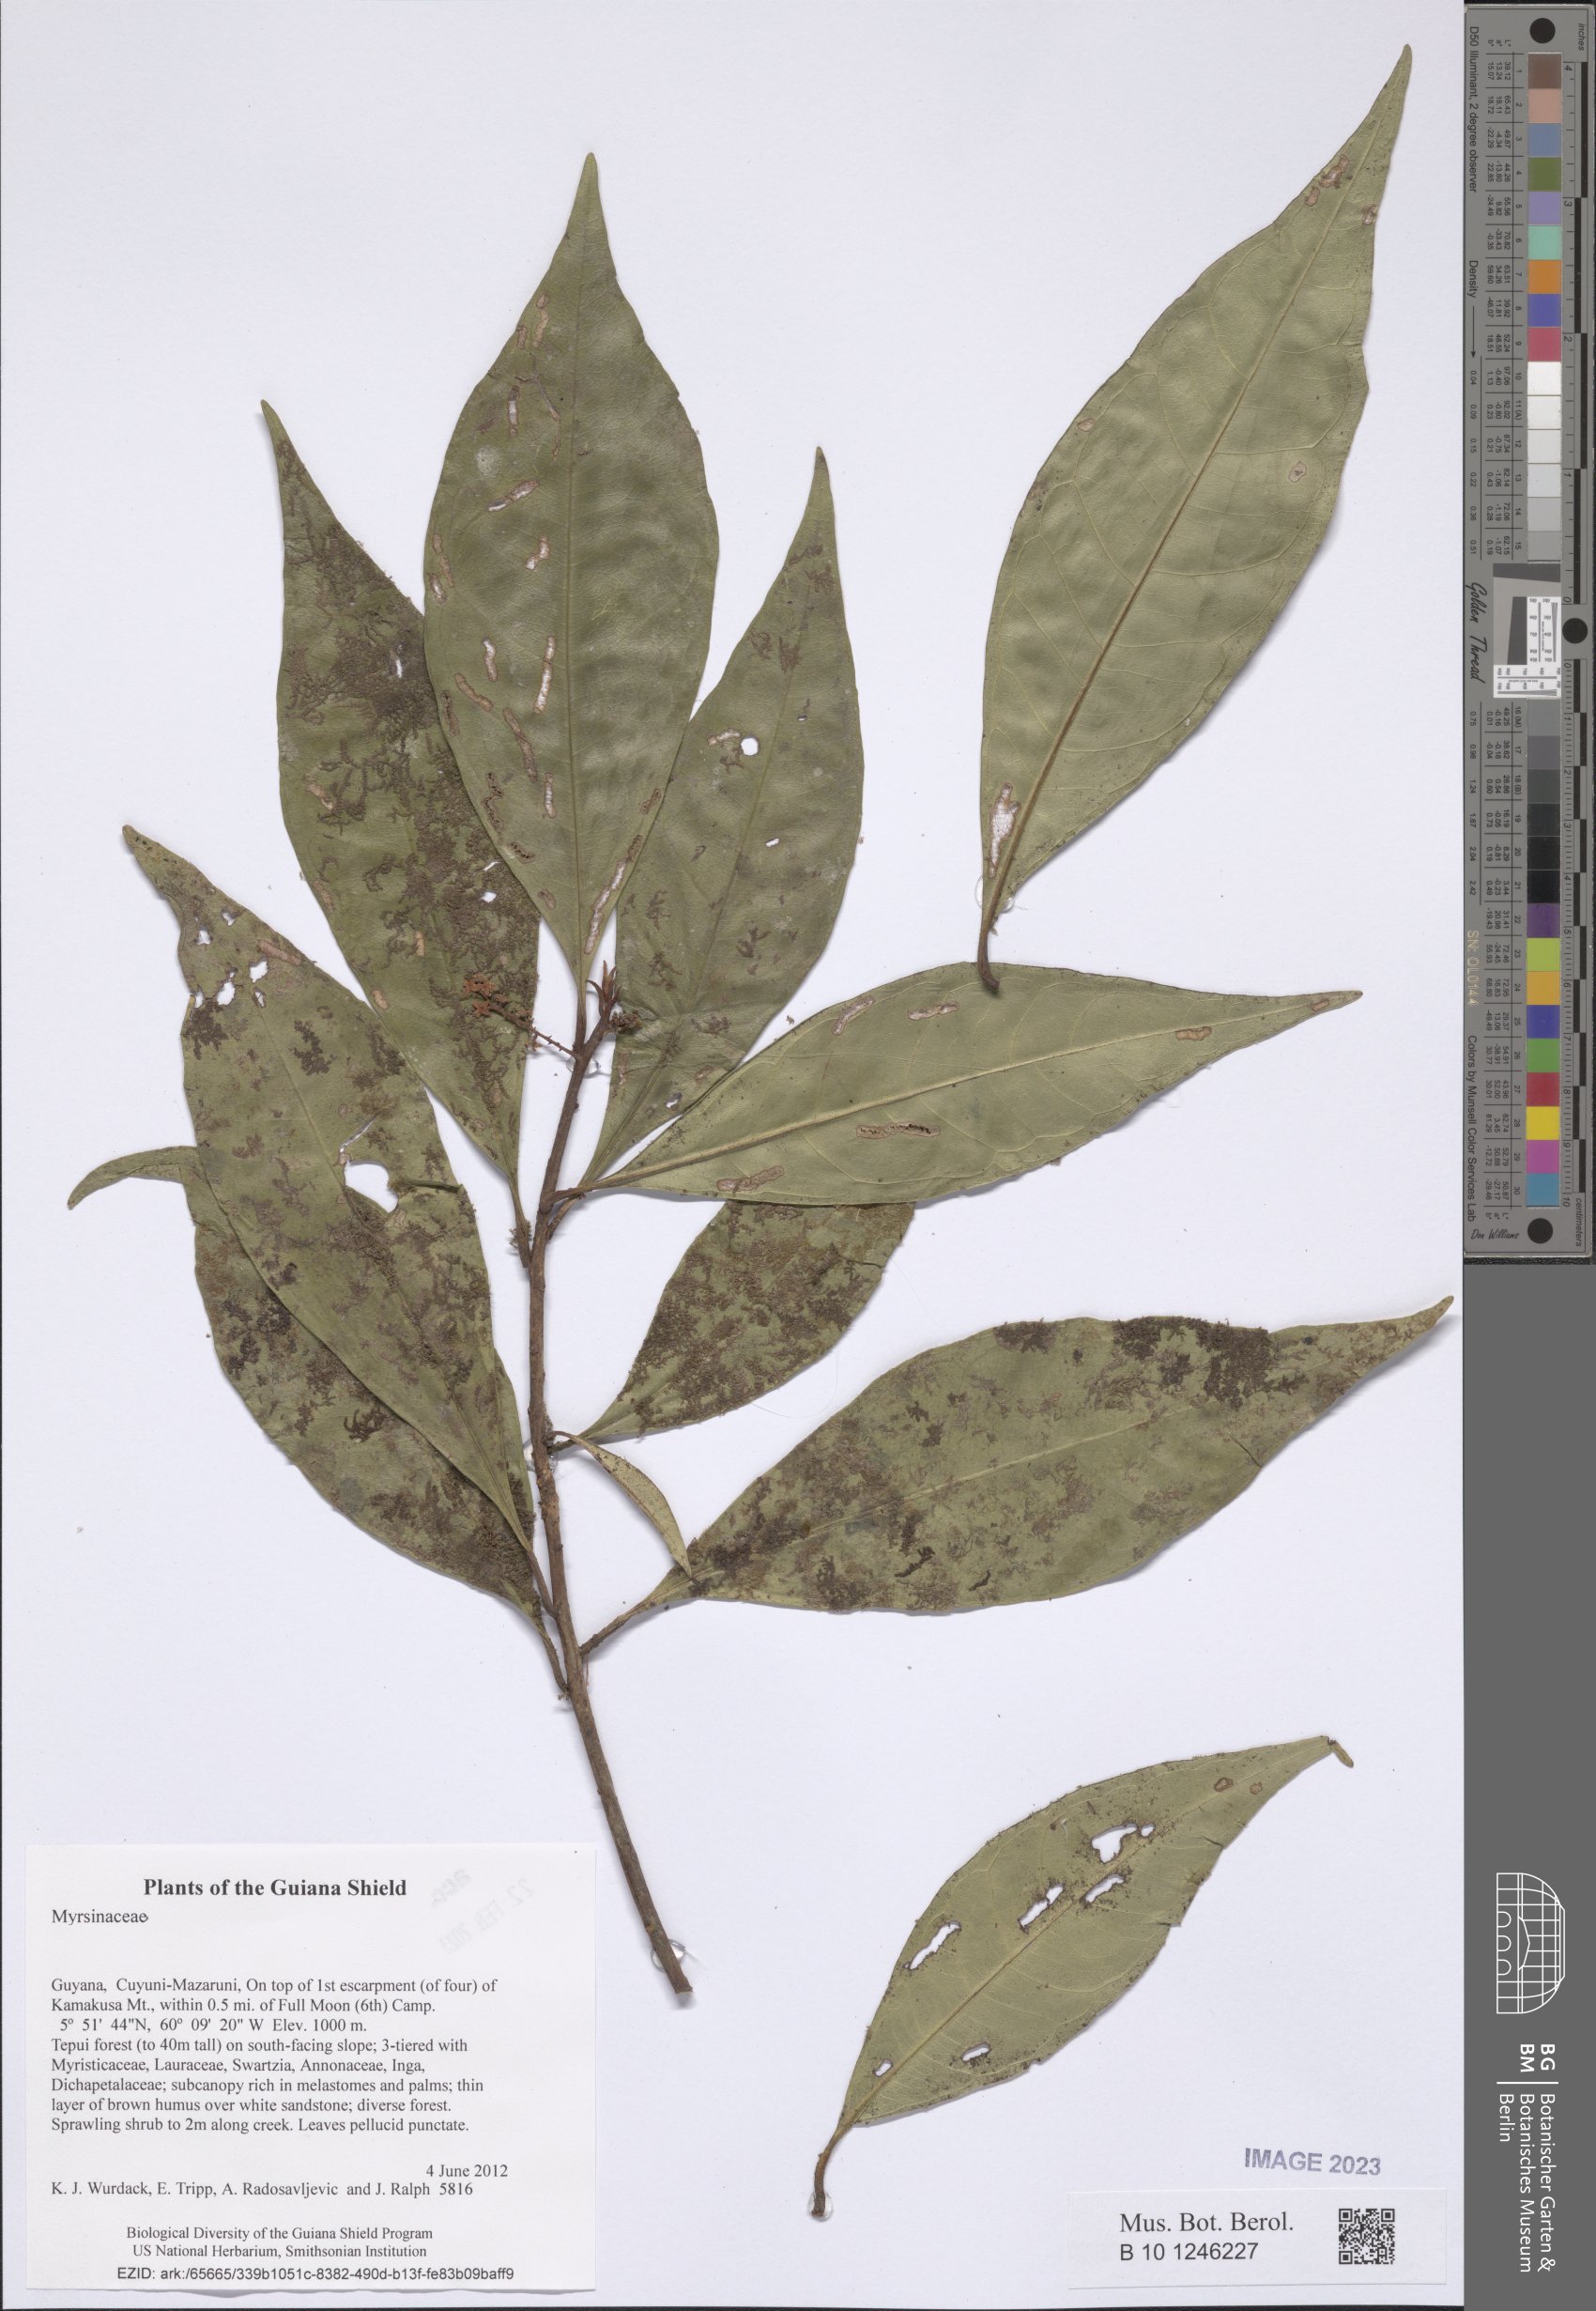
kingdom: Plantae
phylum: Tracheophyta
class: Magnoliopsida
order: Ericales
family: Primulaceae
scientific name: Primulaceae
